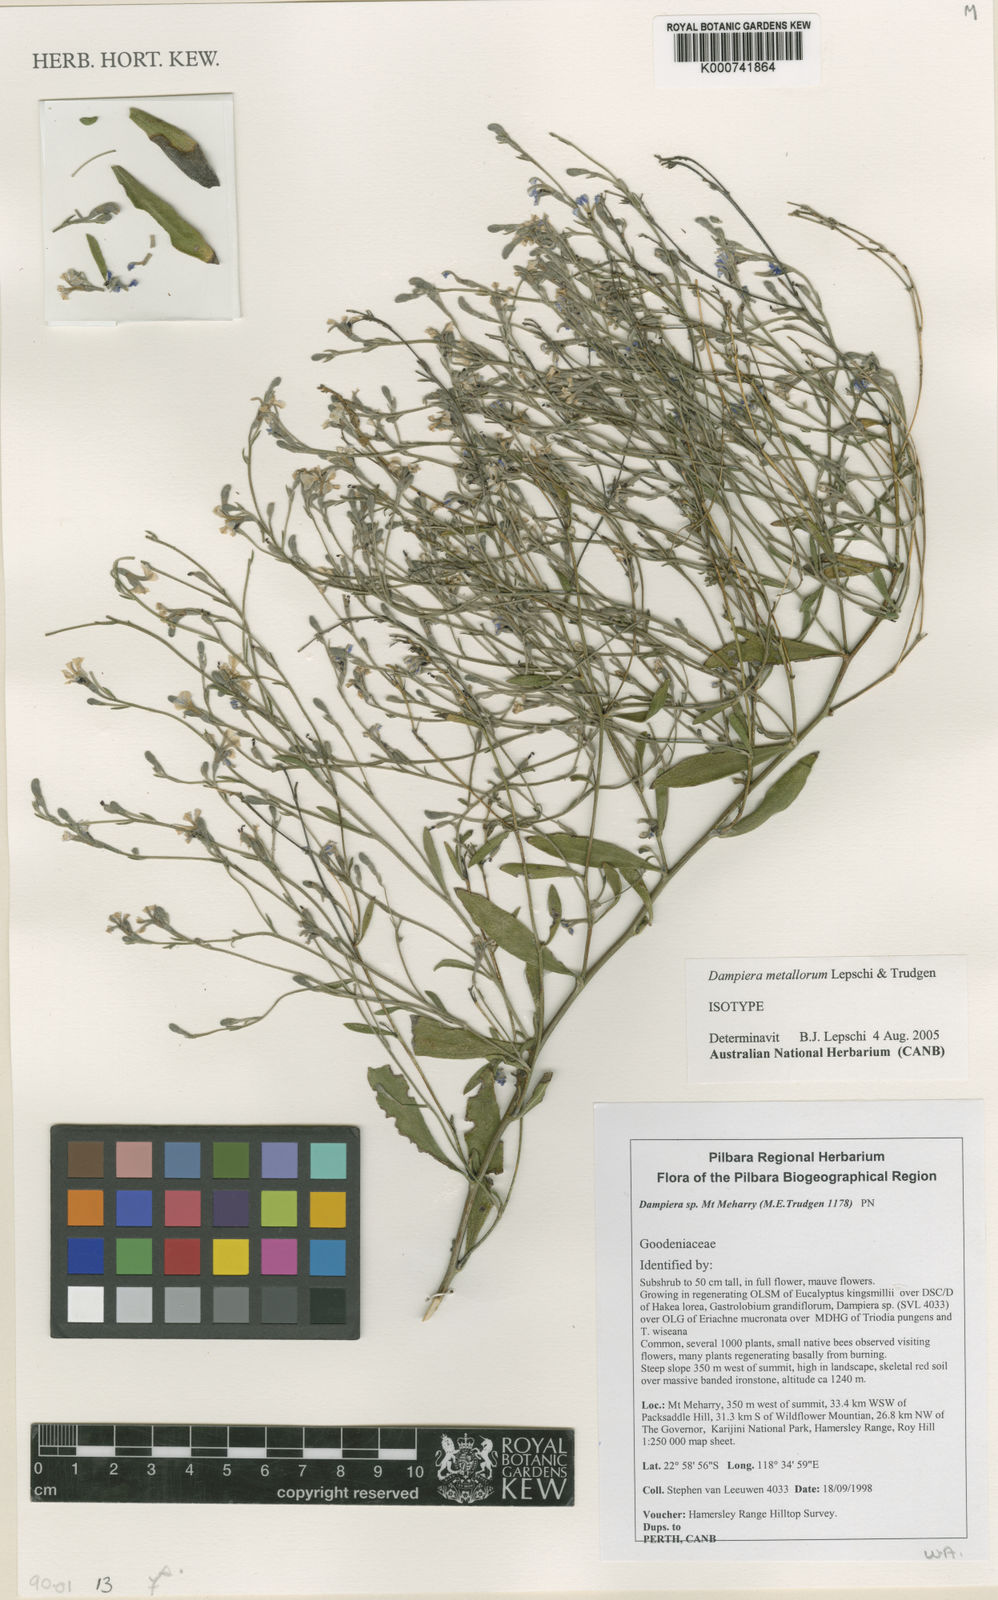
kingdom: Plantae
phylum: Tracheophyta
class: Magnoliopsida
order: Asterales
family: Goodeniaceae
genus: Dampiera
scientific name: Dampiera metallorum
